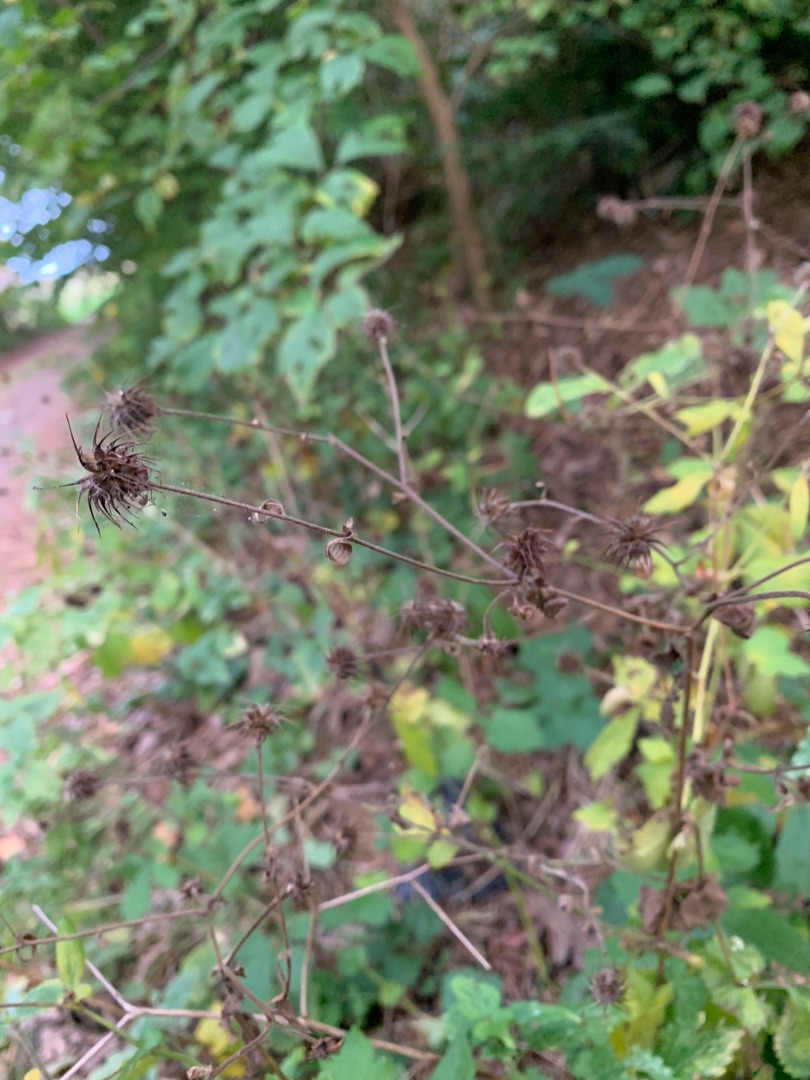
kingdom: Plantae
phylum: Tracheophyta
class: Magnoliopsida
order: Rosales
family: Rosaceae
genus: Geum
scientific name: Geum urbanum
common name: Feber-nellikerod
